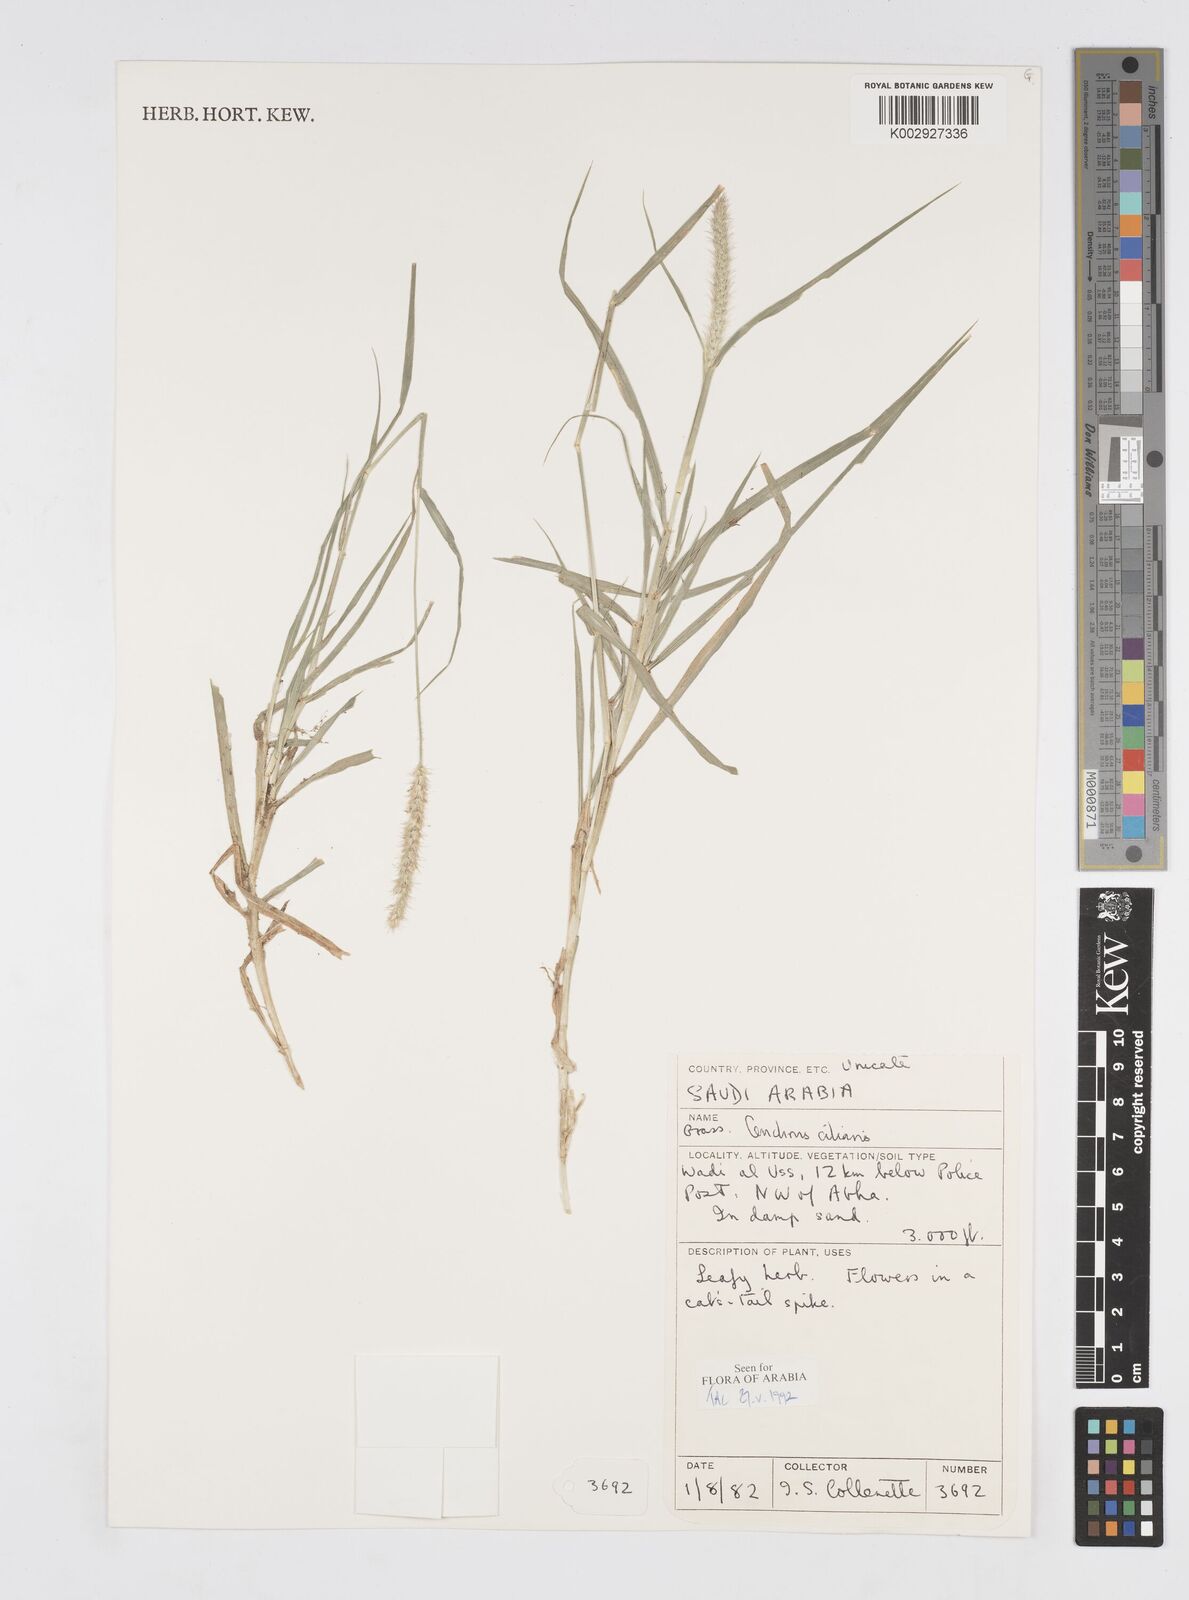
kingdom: Plantae
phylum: Tracheophyta
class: Liliopsida
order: Poales
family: Poaceae
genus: Cenchrus
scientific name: Cenchrus ciliaris
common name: Buffelgrass
